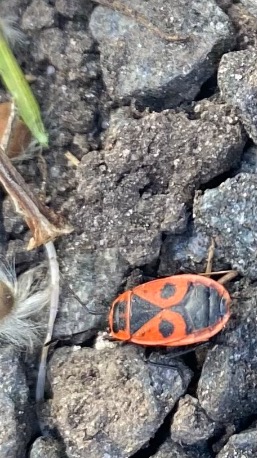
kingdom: Animalia
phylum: Arthropoda
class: Insecta
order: Hemiptera
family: Pyrrhocoridae
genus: Pyrrhocoris
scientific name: Pyrrhocoris apterus
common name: Ildtæge
